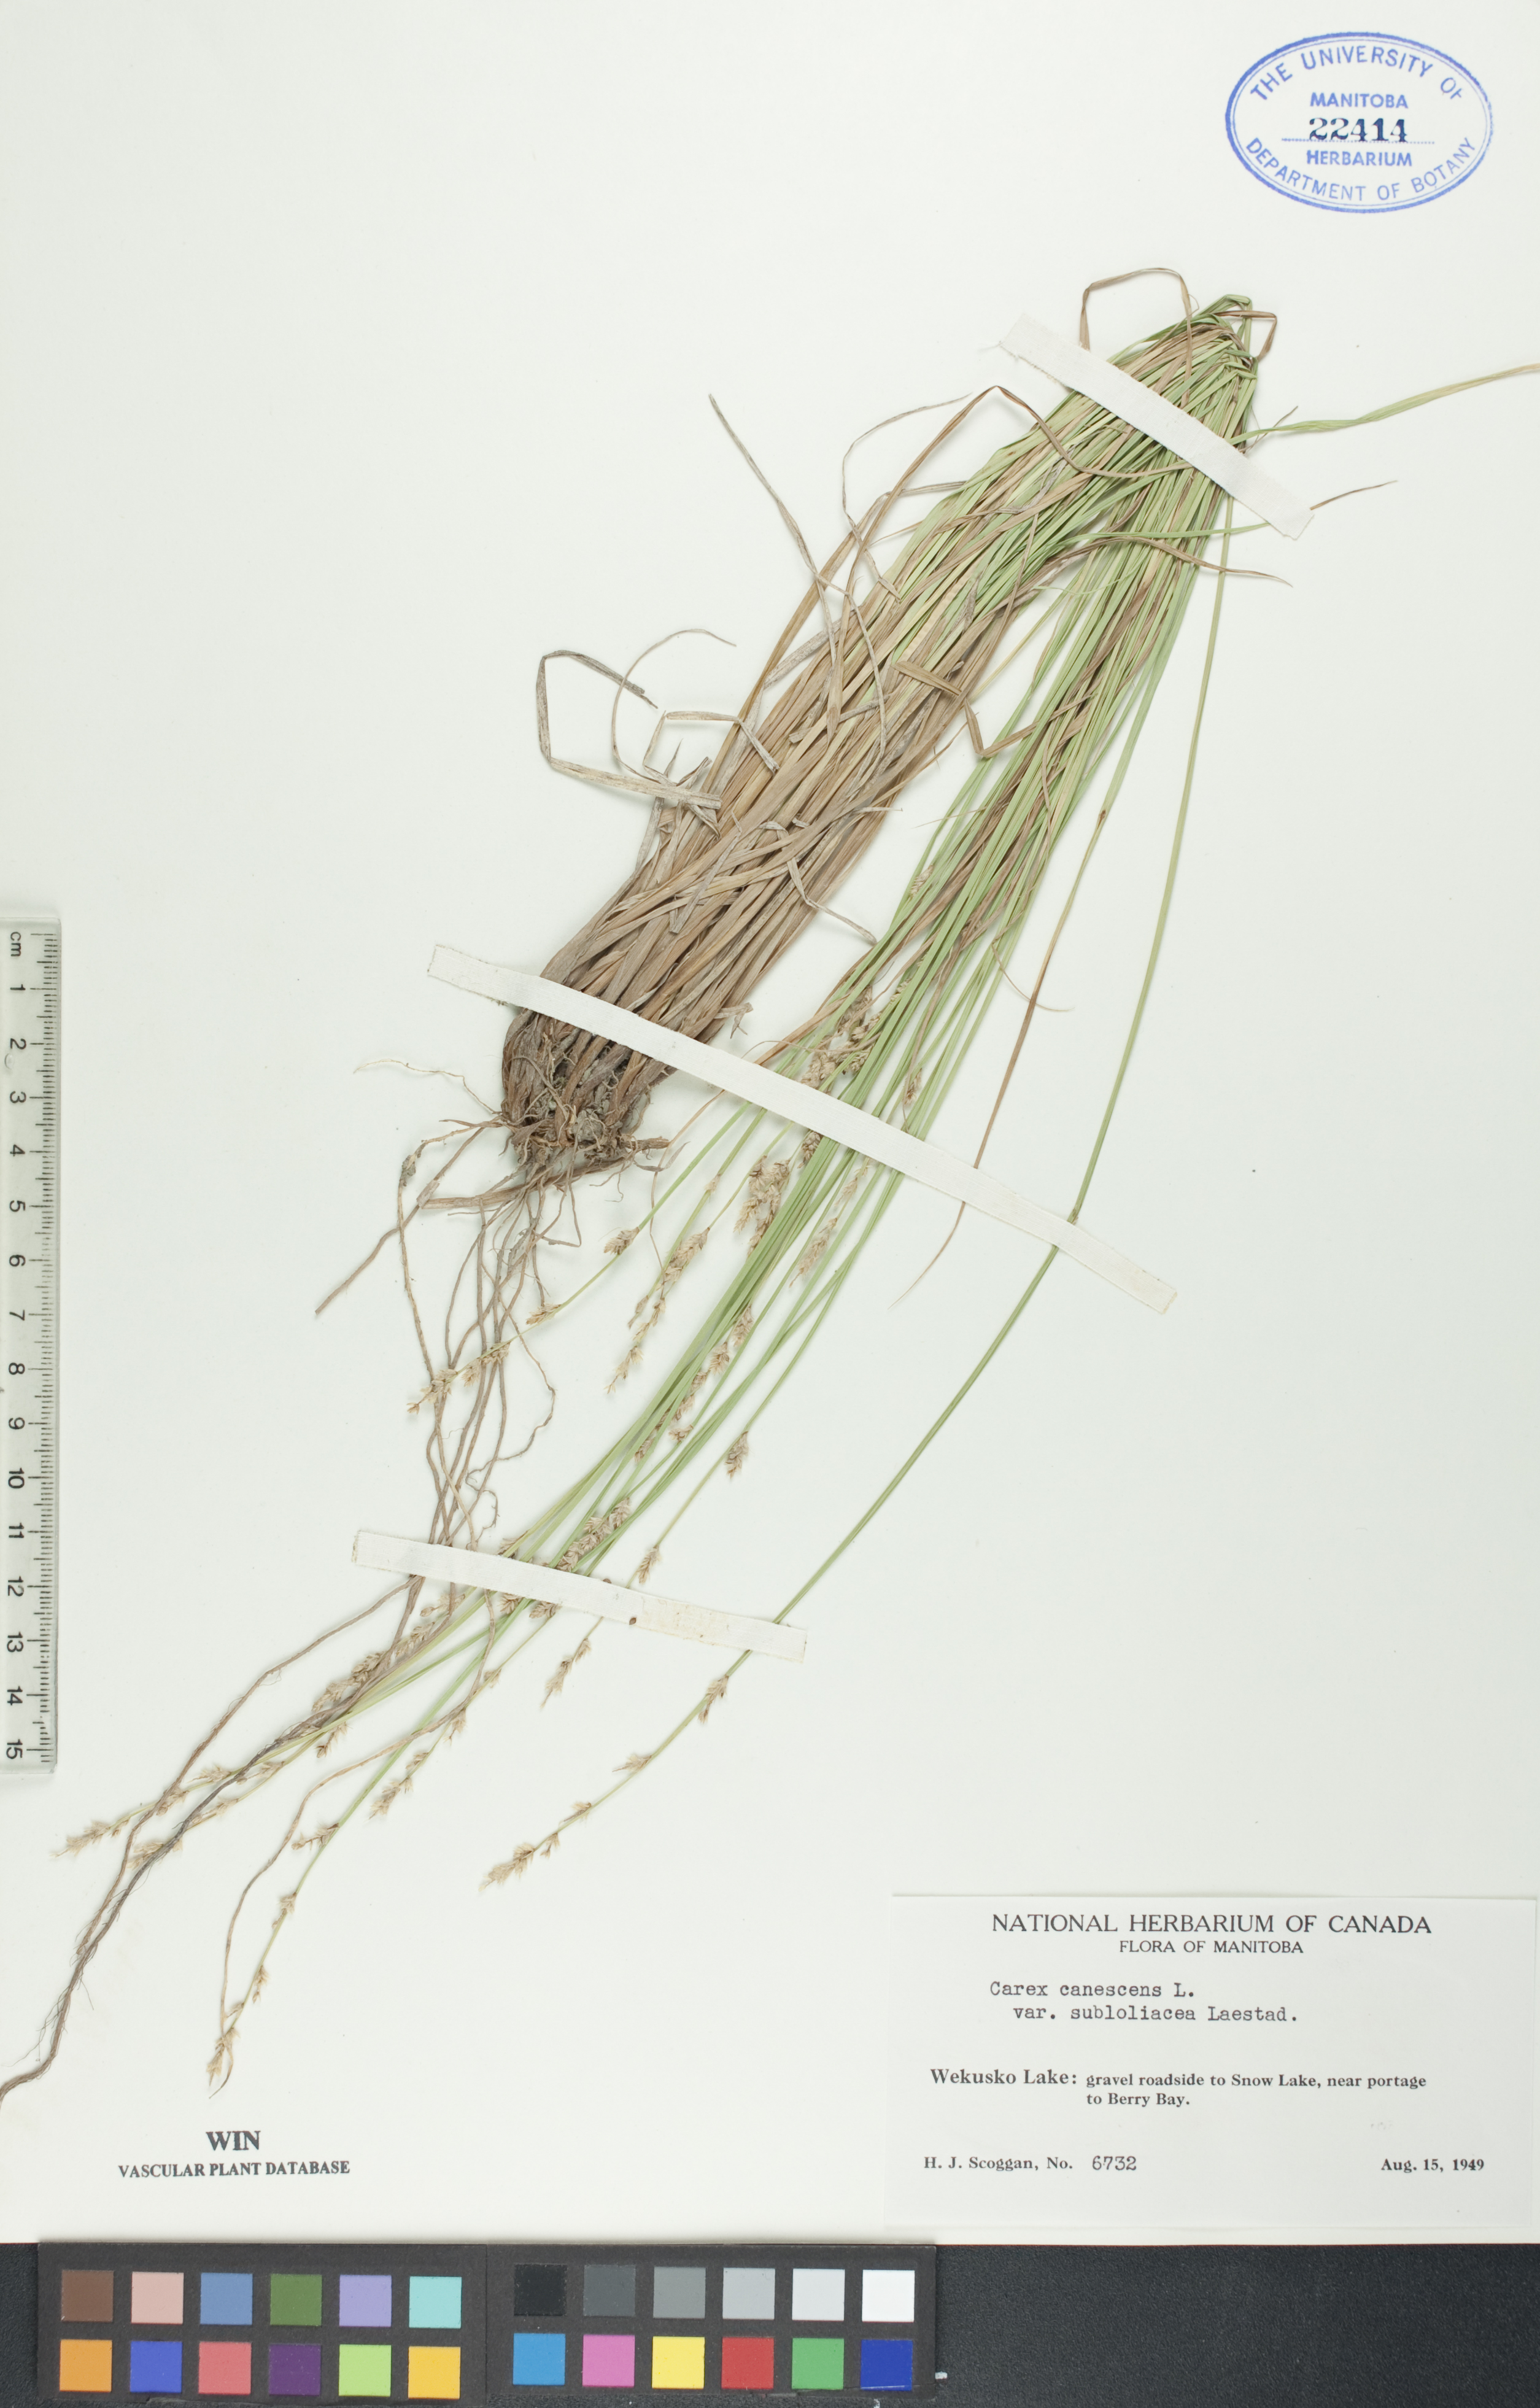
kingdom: Plantae
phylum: Tracheophyta
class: Liliopsida
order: Poales
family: Cyperaceae
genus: Carex
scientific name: Carex lapponica
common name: Lapland sedge
